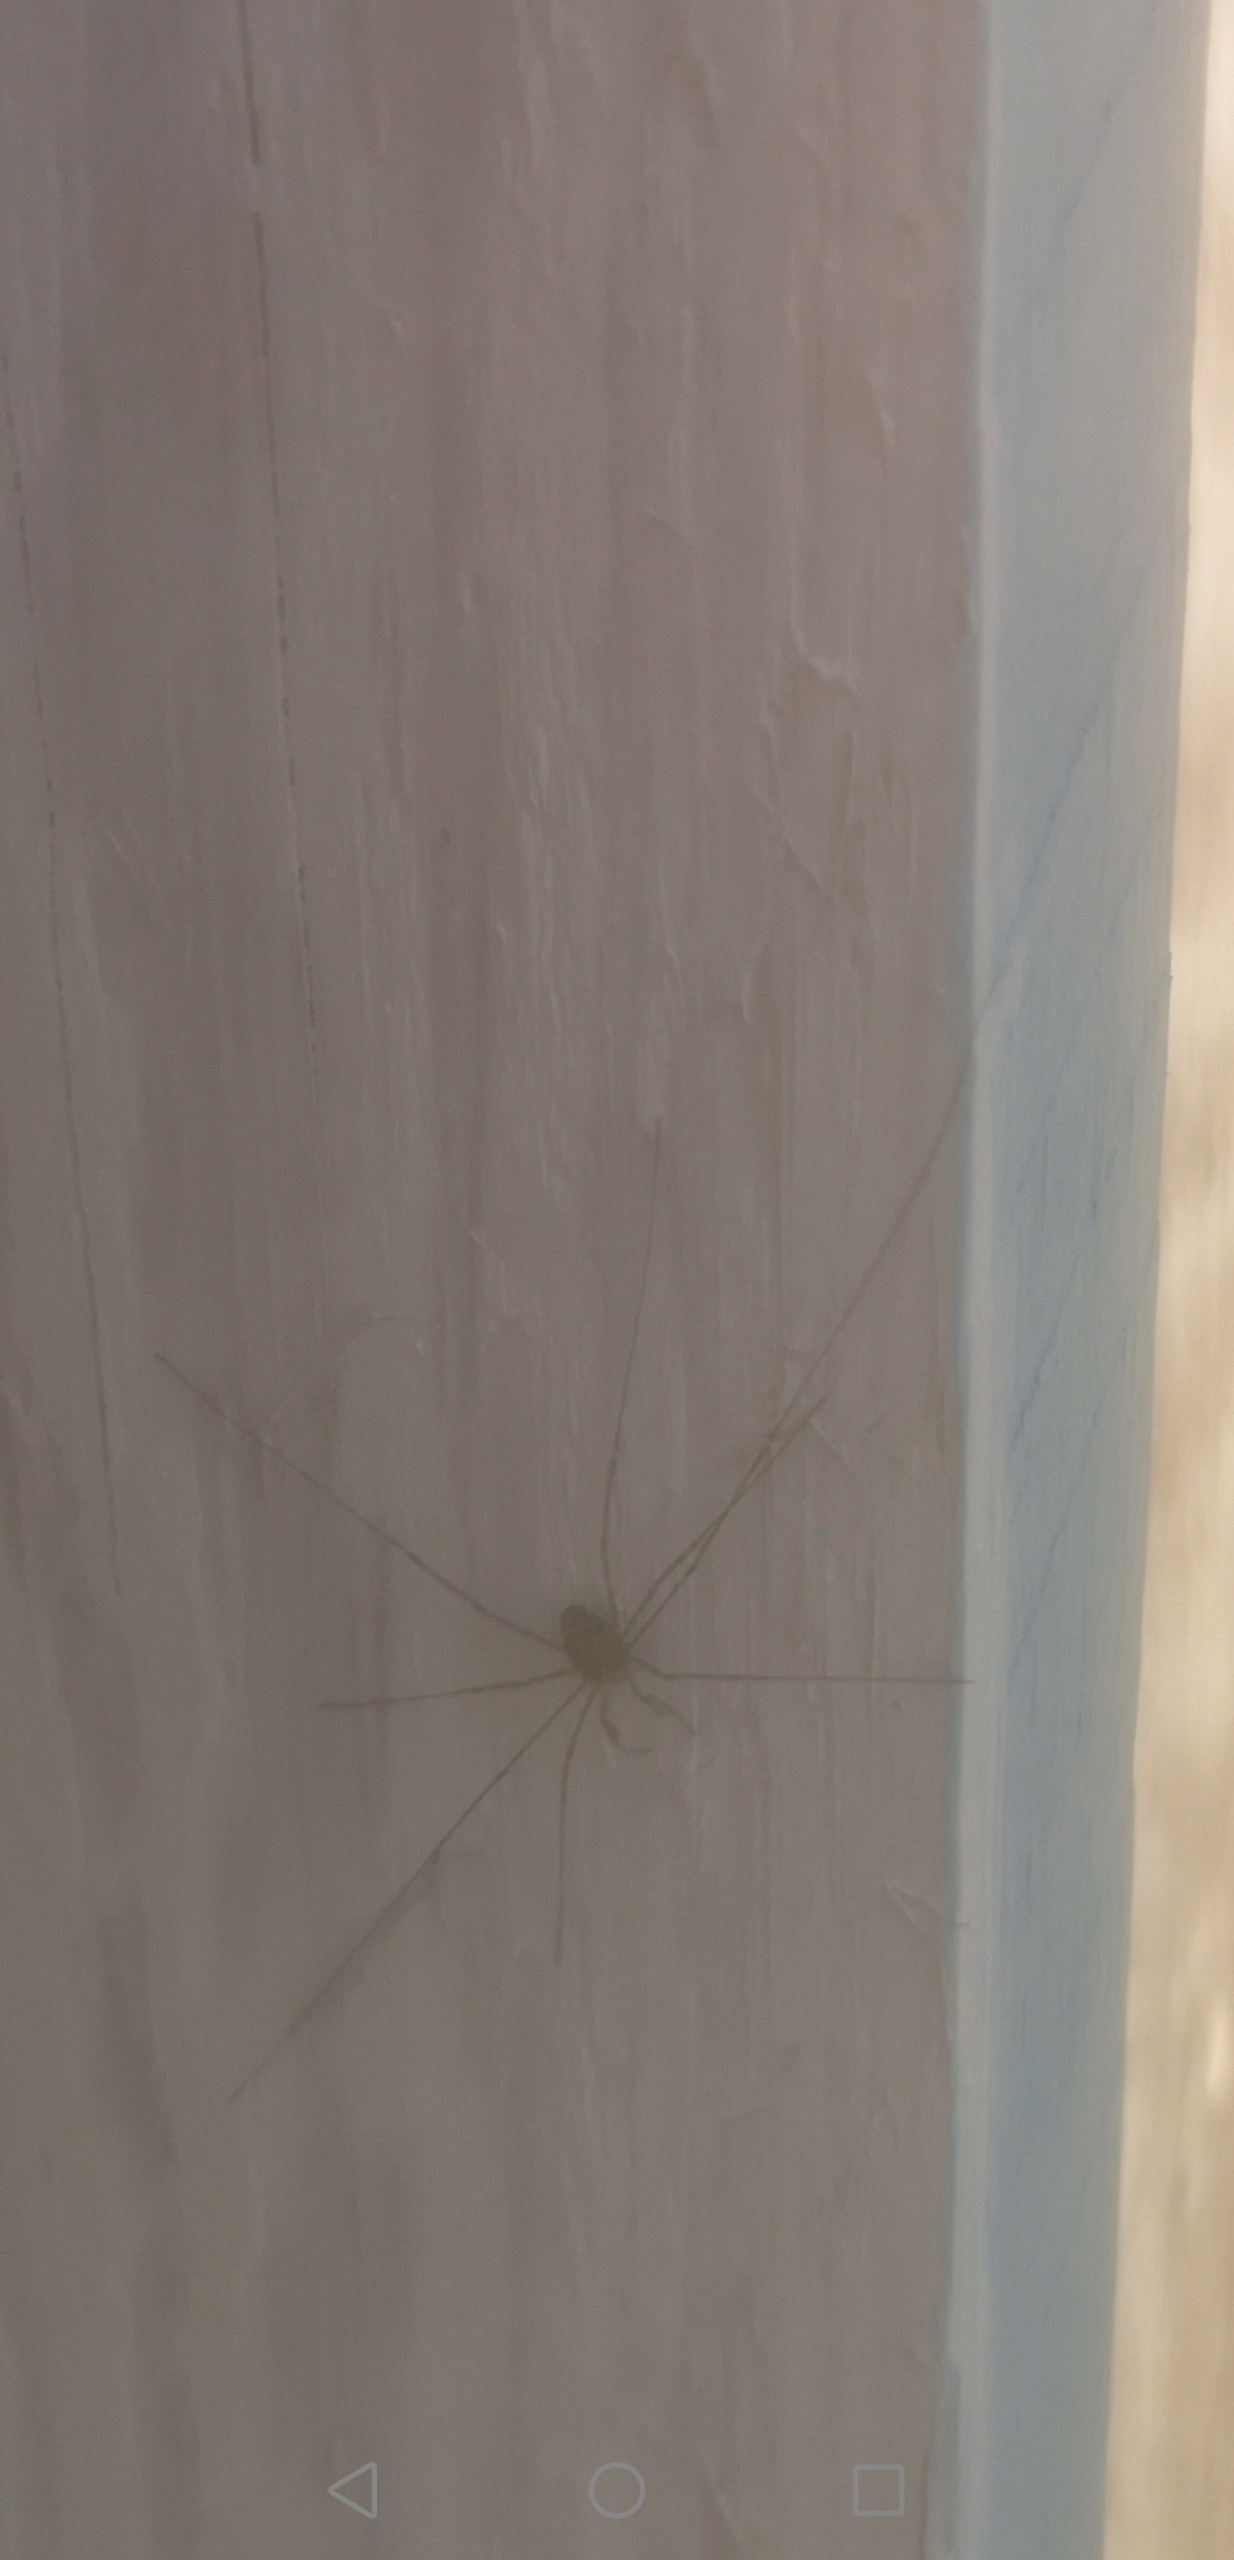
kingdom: Animalia
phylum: Arthropoda
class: Arachnida
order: Opiliones
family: Phalangiidae
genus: Dicranopalpus
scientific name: Dicranopalpus ramosus
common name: Gaffelmejer
